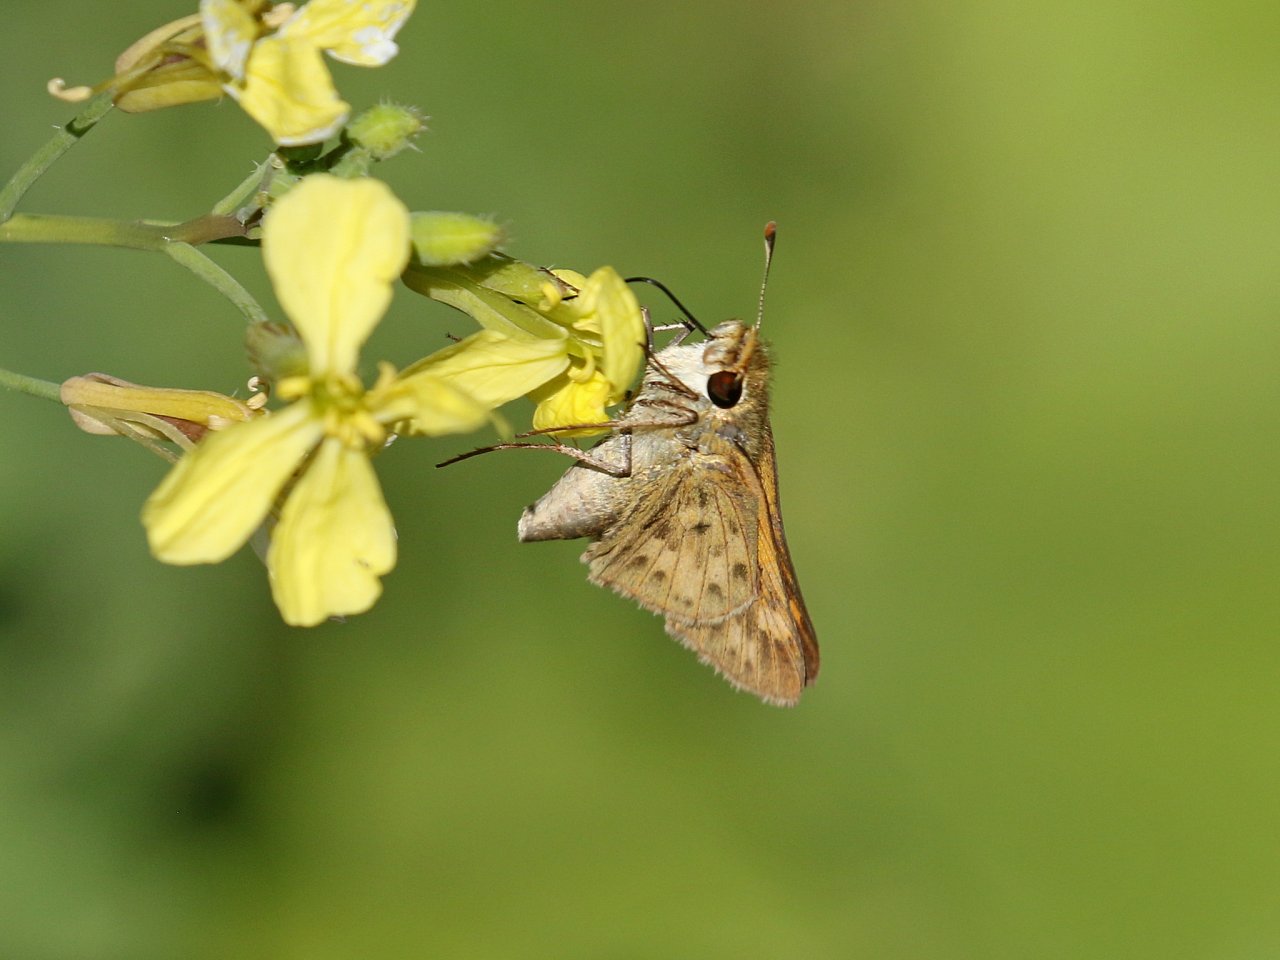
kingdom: Animalia
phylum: Arthropoda
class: Insecta
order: Lepidoptera
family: Hesperiidae
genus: Hylephila
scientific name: Hylephila phyleus
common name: Fiery Skipper
